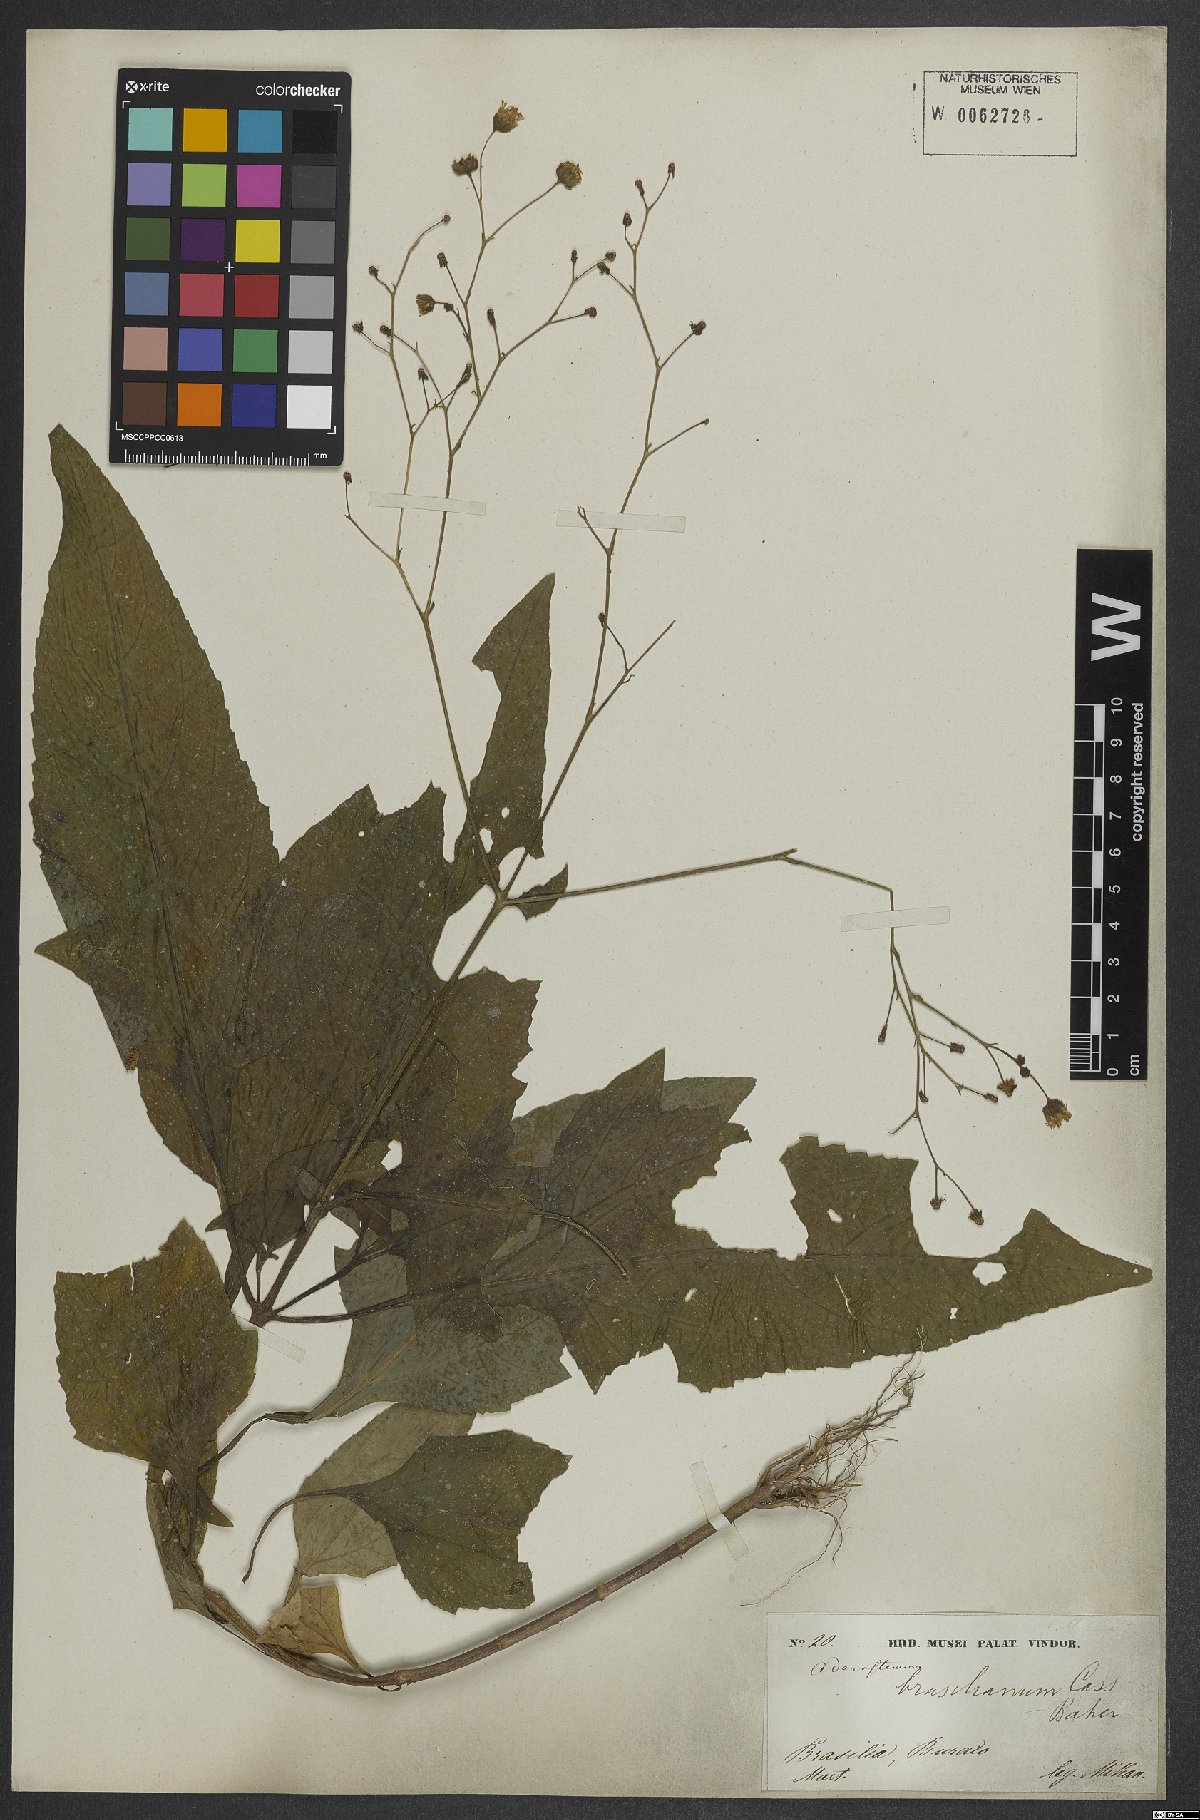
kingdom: Plantae
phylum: Tracheophyta
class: Magnoliopsida
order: Asterales
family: Asteraceae
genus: Adenostemma
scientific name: Adenostemma brasilianum
